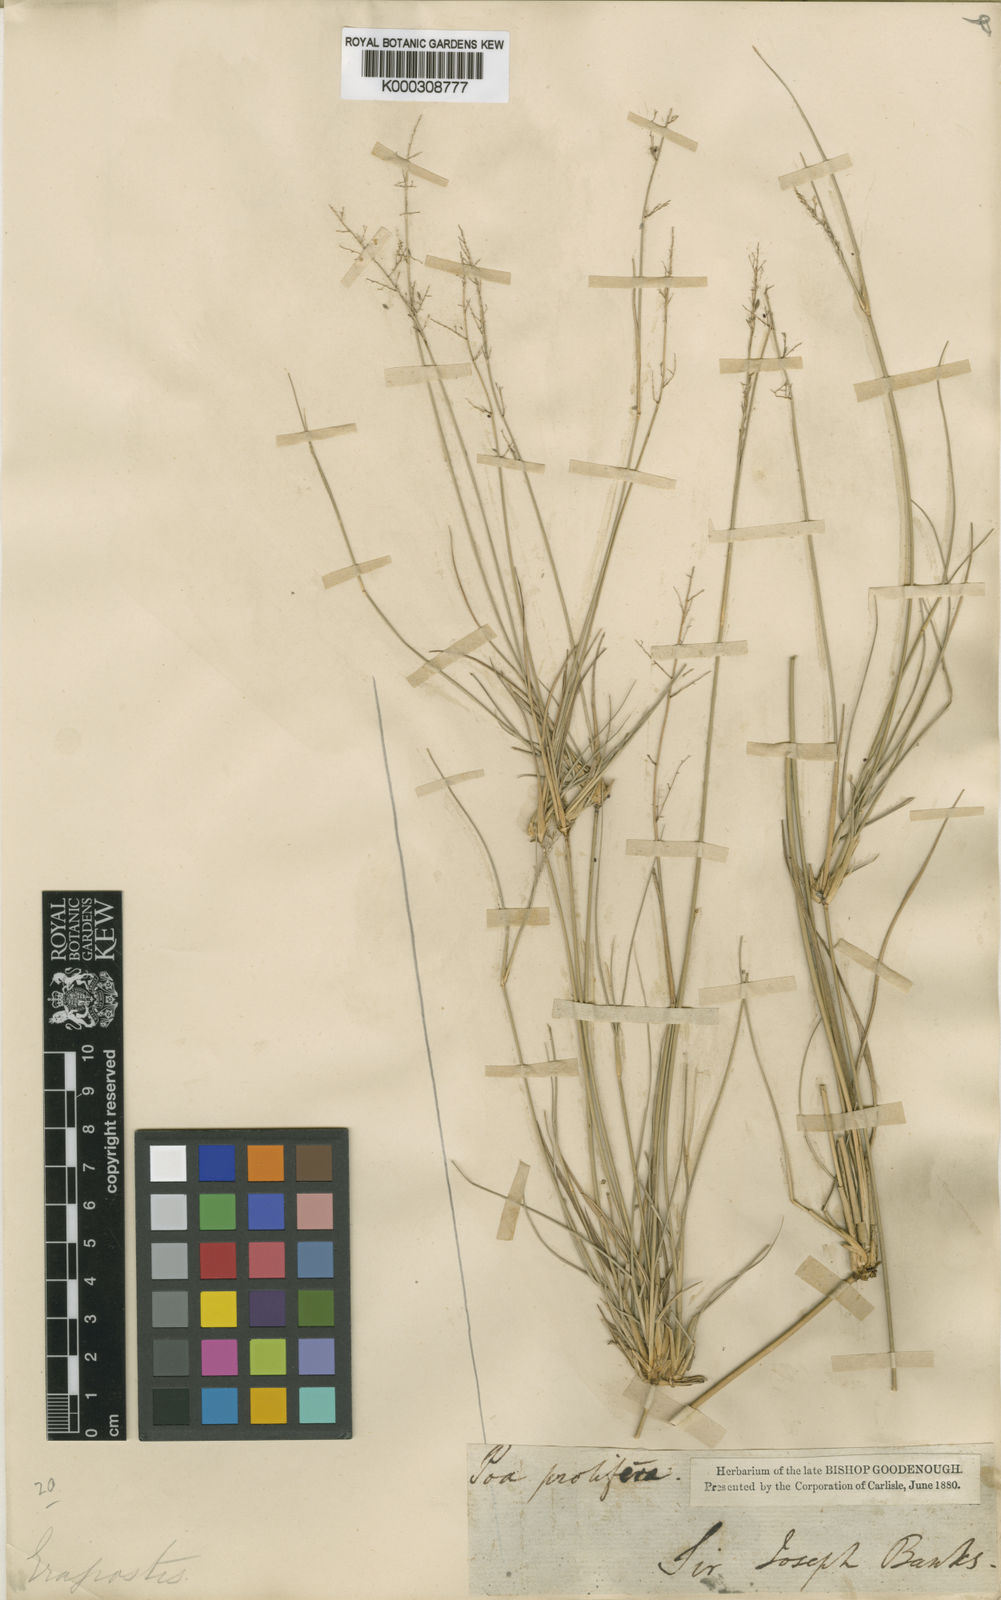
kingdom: Plantae
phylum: Tracheophyta
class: Liliopsida
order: Poales
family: Poaceae
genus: Eragrostis
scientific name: Eragrostis prolifera
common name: Dominican lovegrass
